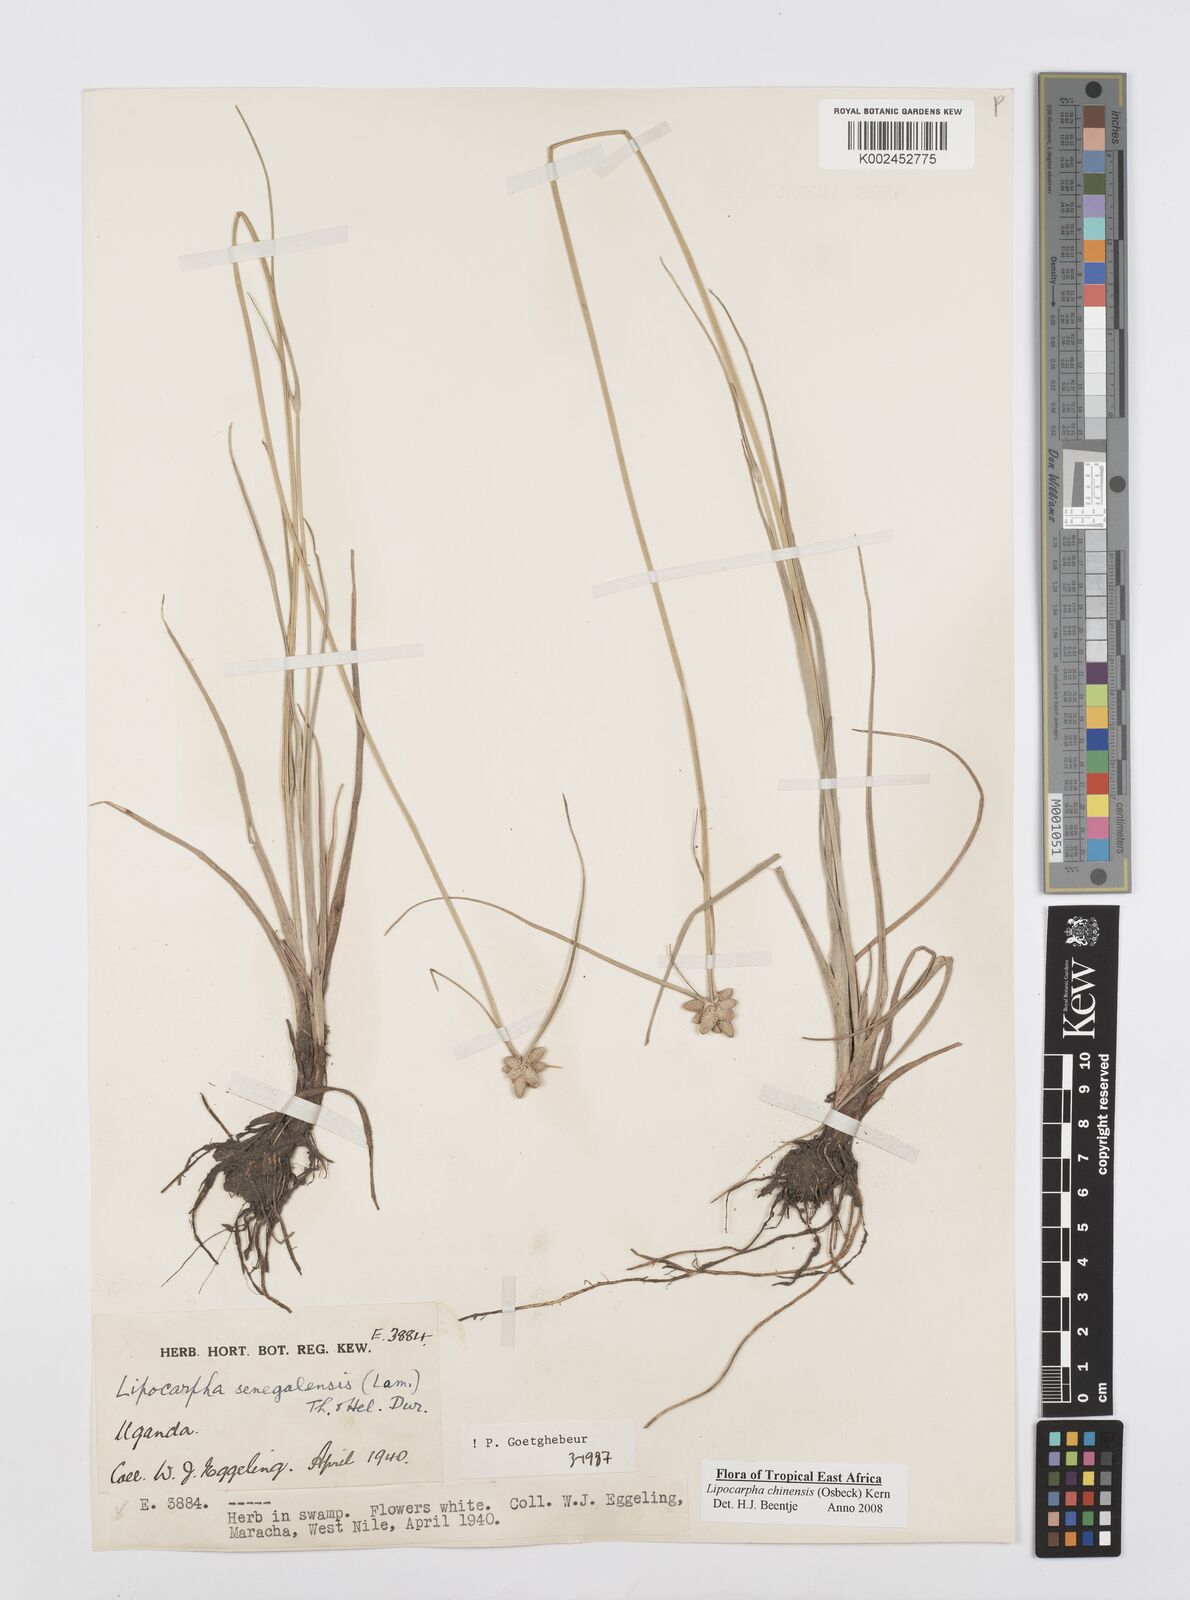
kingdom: Plantae
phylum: Tracheophyta
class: Liliopsida
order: Poales
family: Cyperaceae
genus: Cyperus
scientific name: Cyperus albescens
